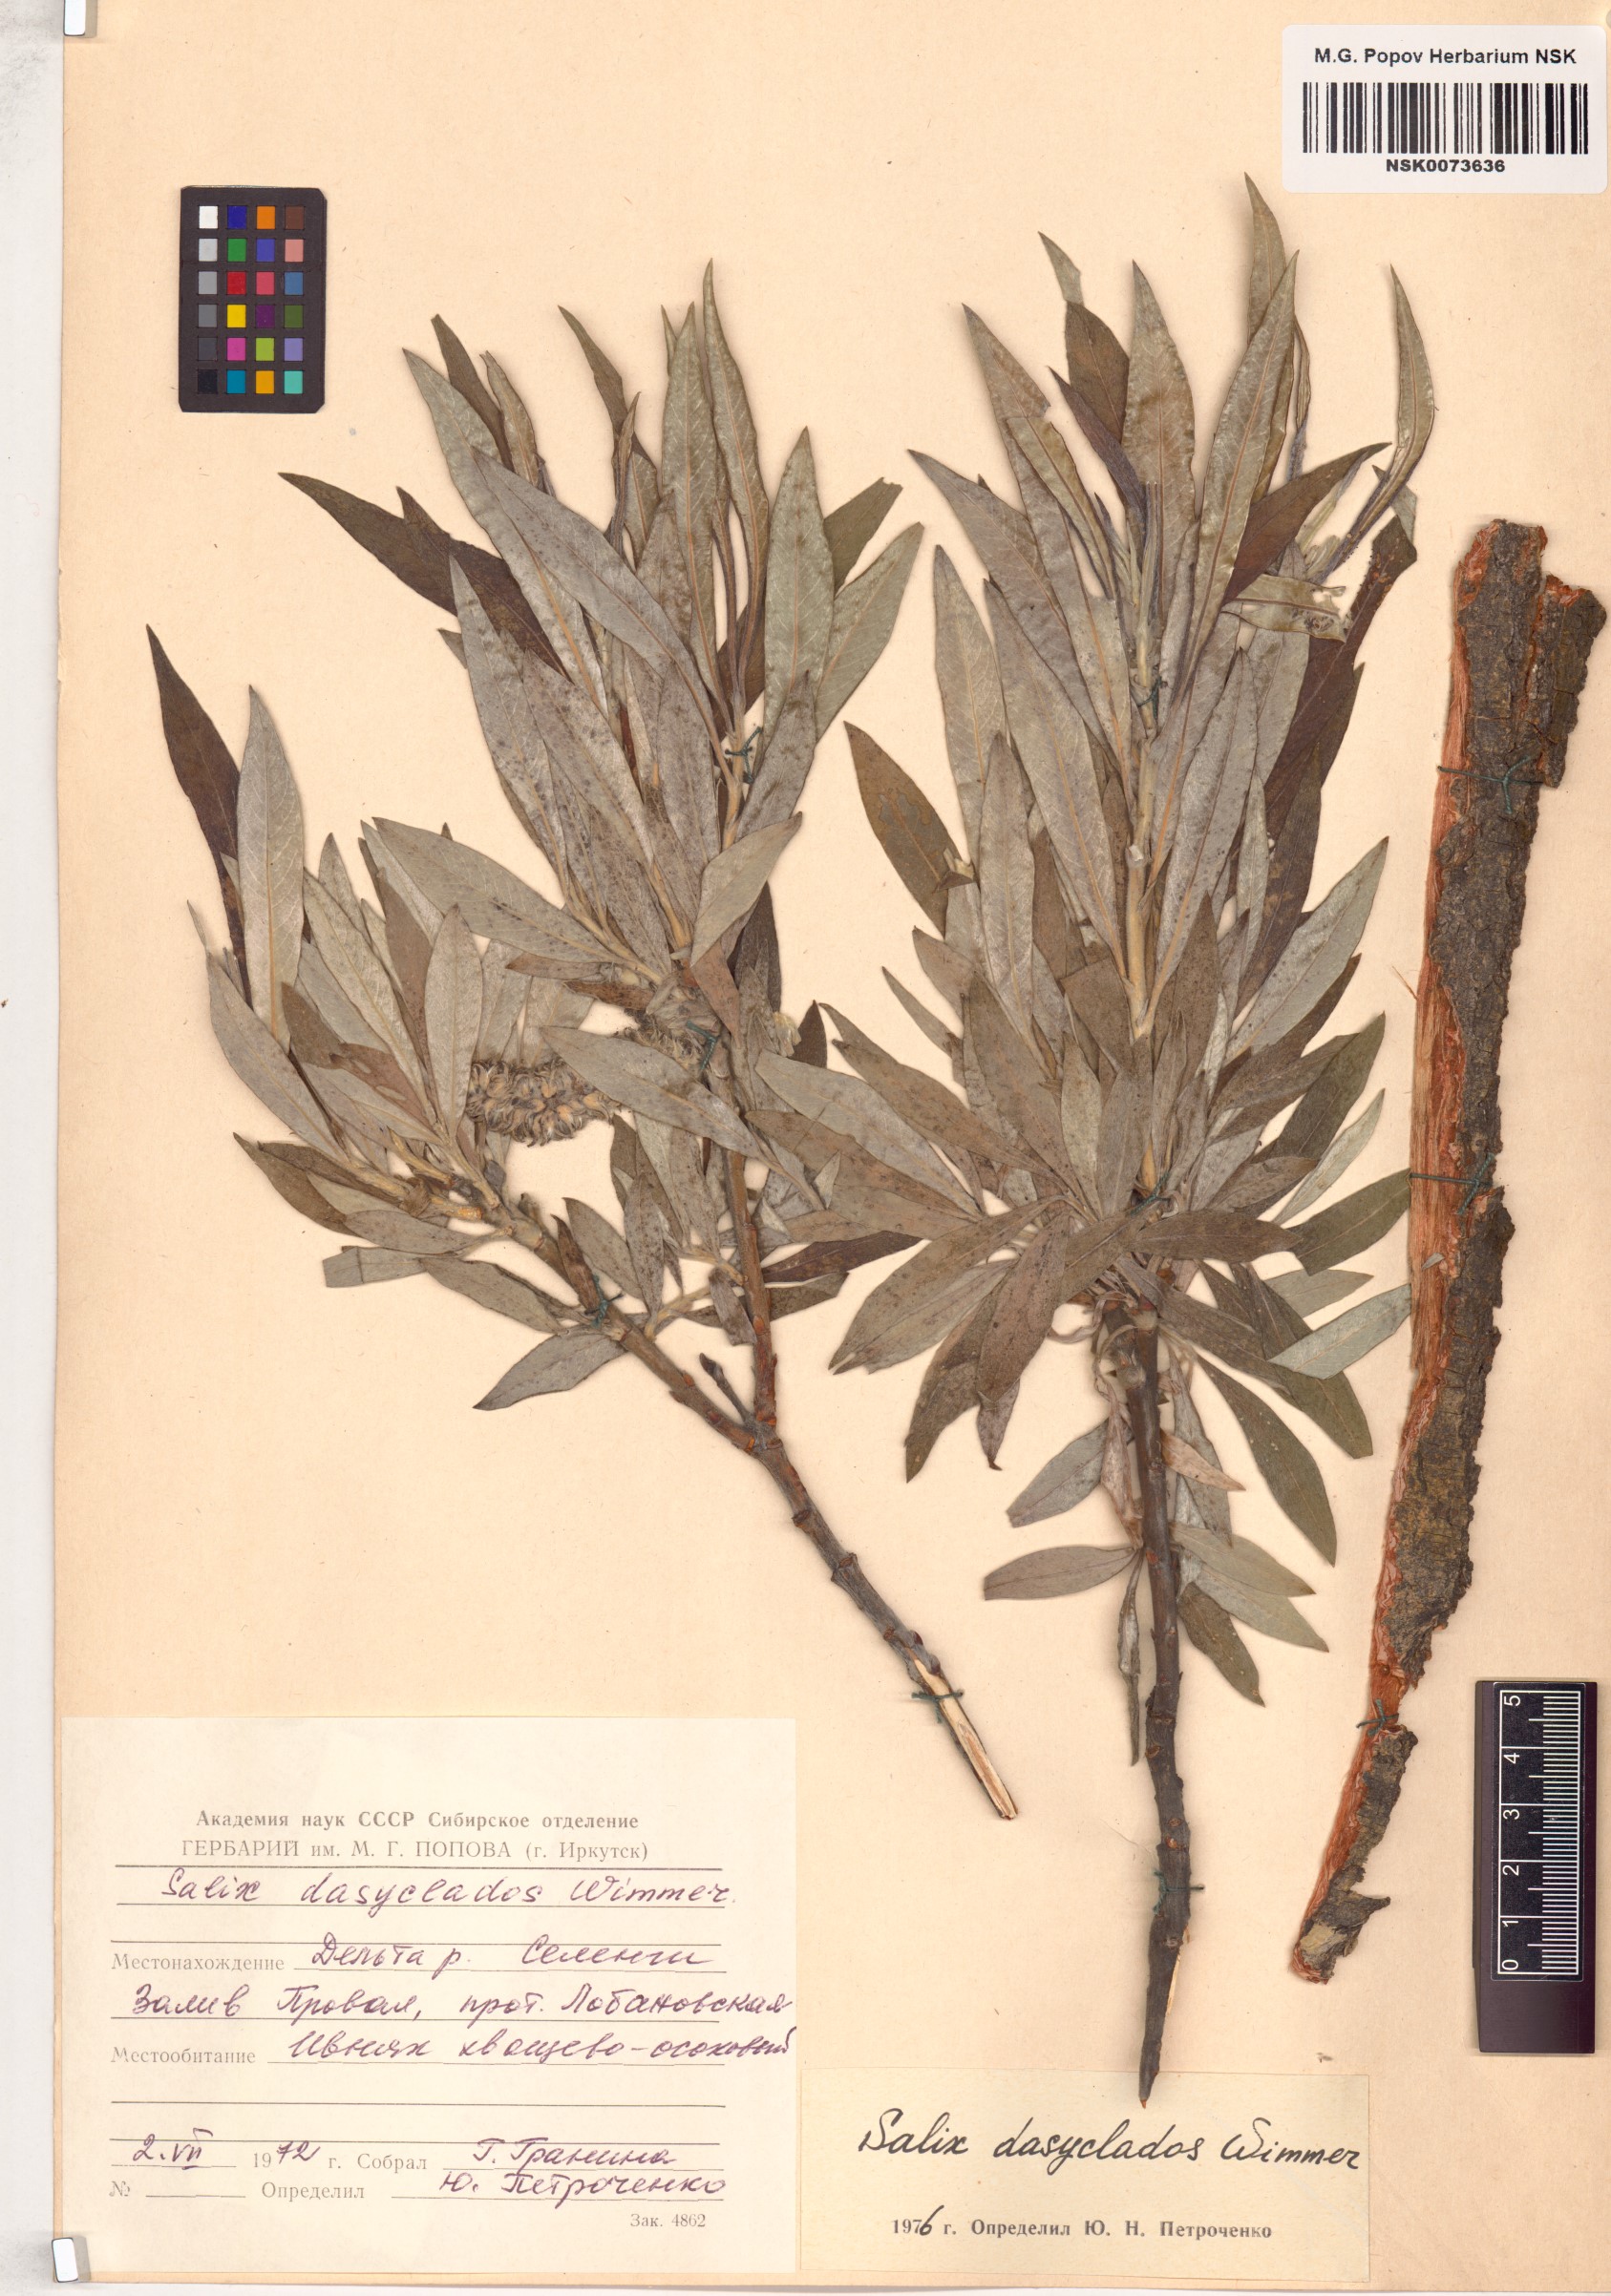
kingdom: Plantae
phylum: Tracheophyta
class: Magnoliopsida
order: Malpighiales
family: Salicaceae
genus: Salix
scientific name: Salix gmelinii
